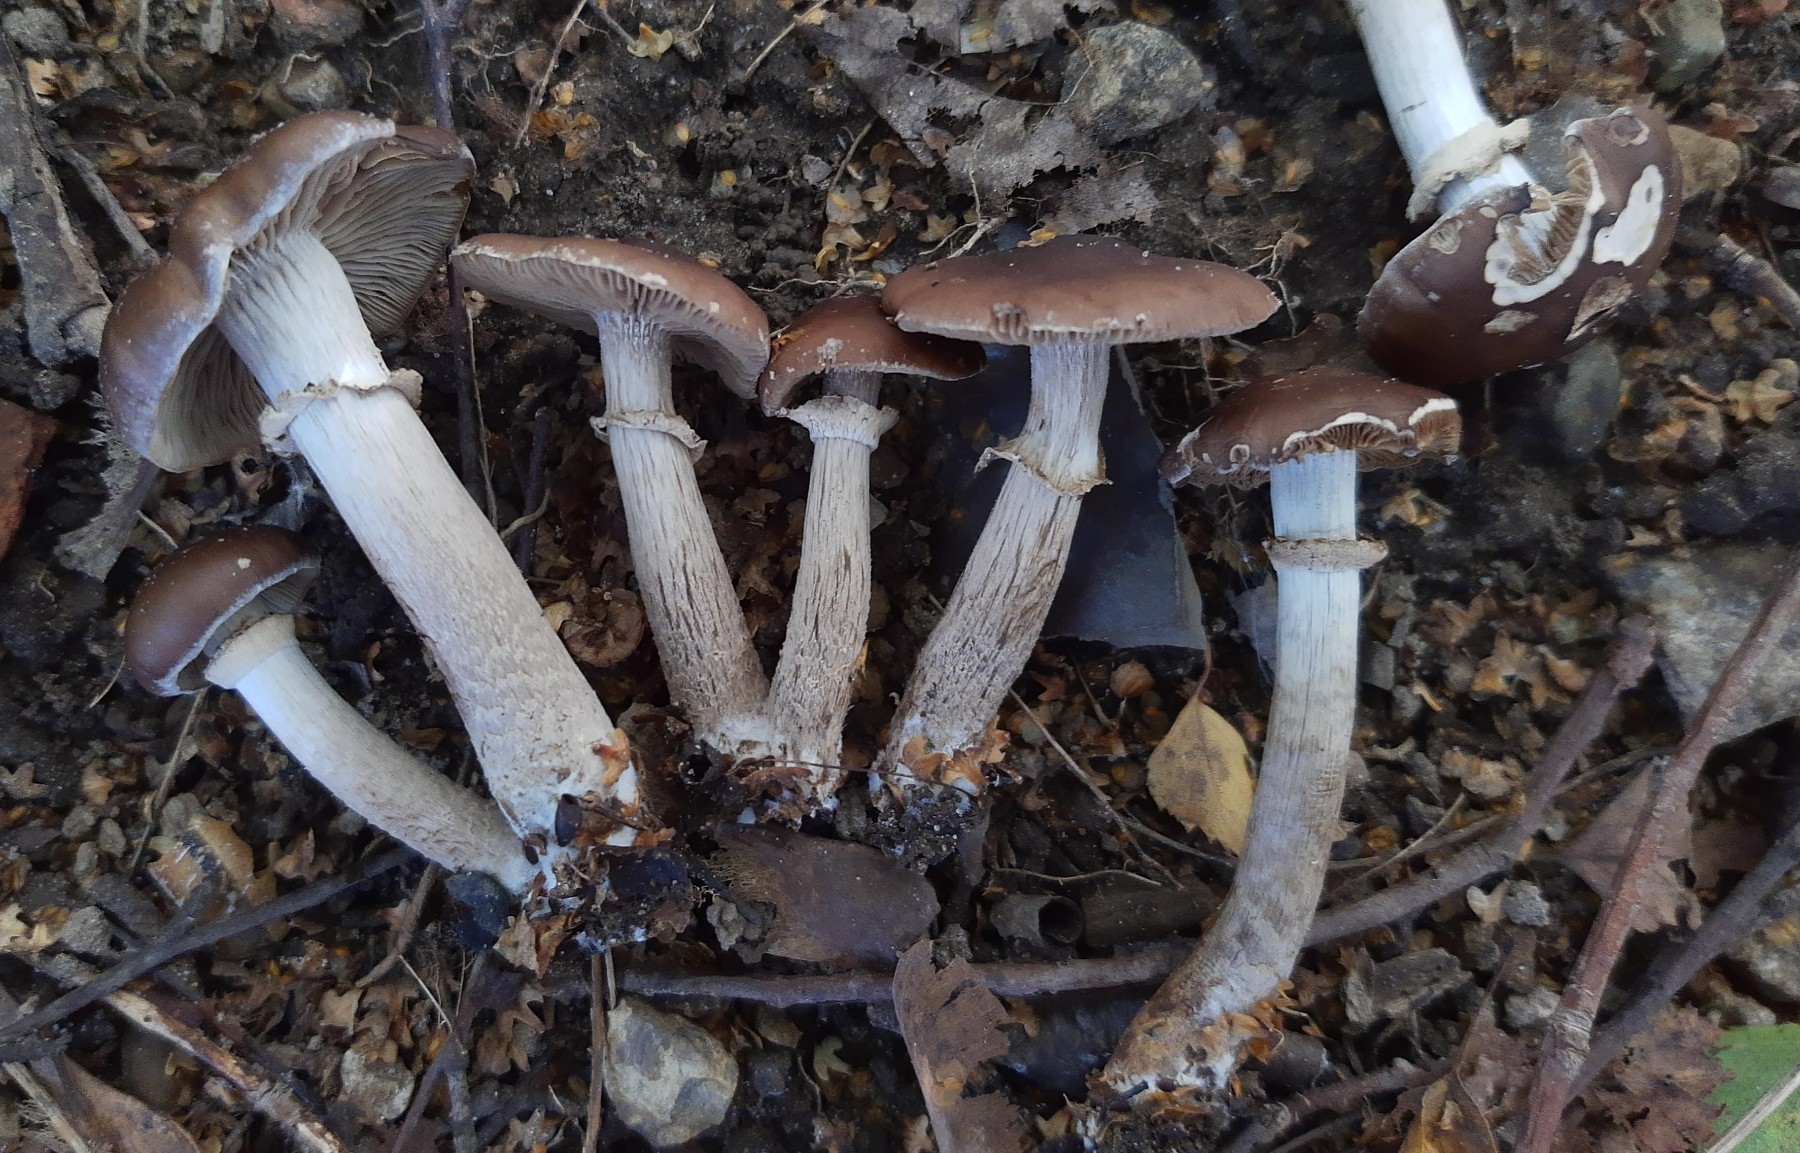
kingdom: Fungi
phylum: Basidiomycota
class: Agaricomycetes
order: Agaricales
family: Strophariaceae
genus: Stropharia
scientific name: Stropharia rugosoannulata
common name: rødbrun bredblad
